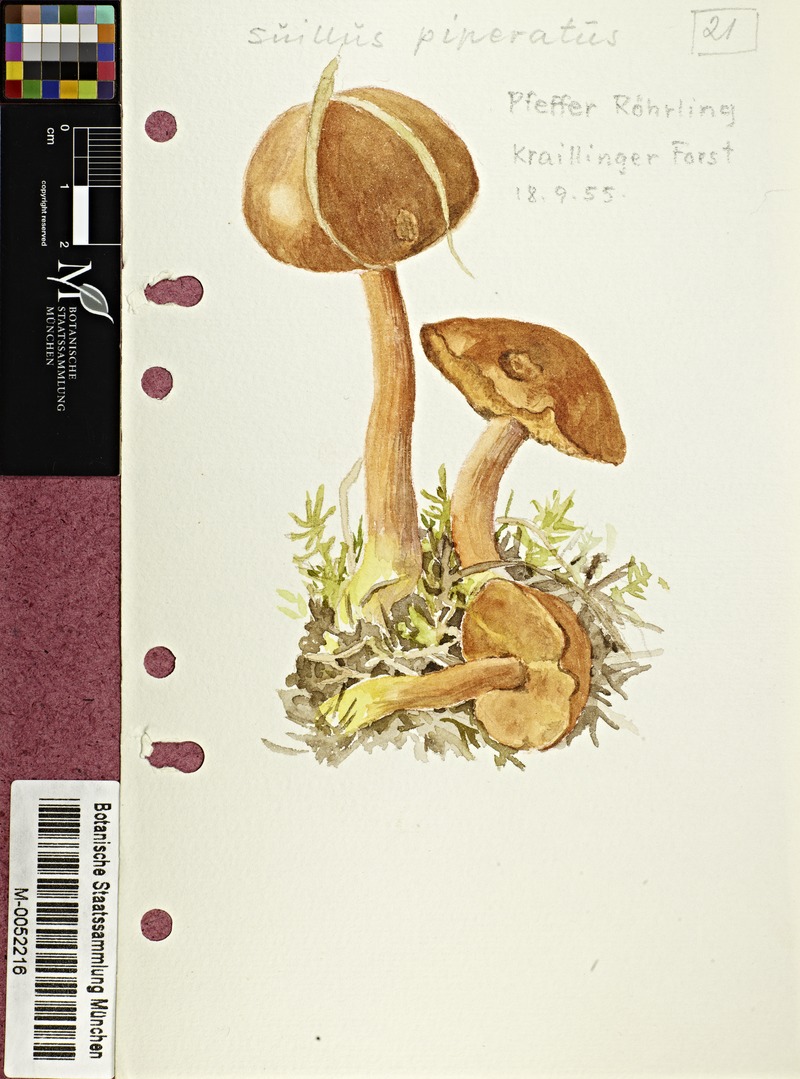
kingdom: Fungi
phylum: Basidiomycota
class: Agaricomycetes
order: Boletales
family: Boletaceae
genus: Chalciporus
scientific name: Chalciporus piperatus
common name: Peppery bolete
